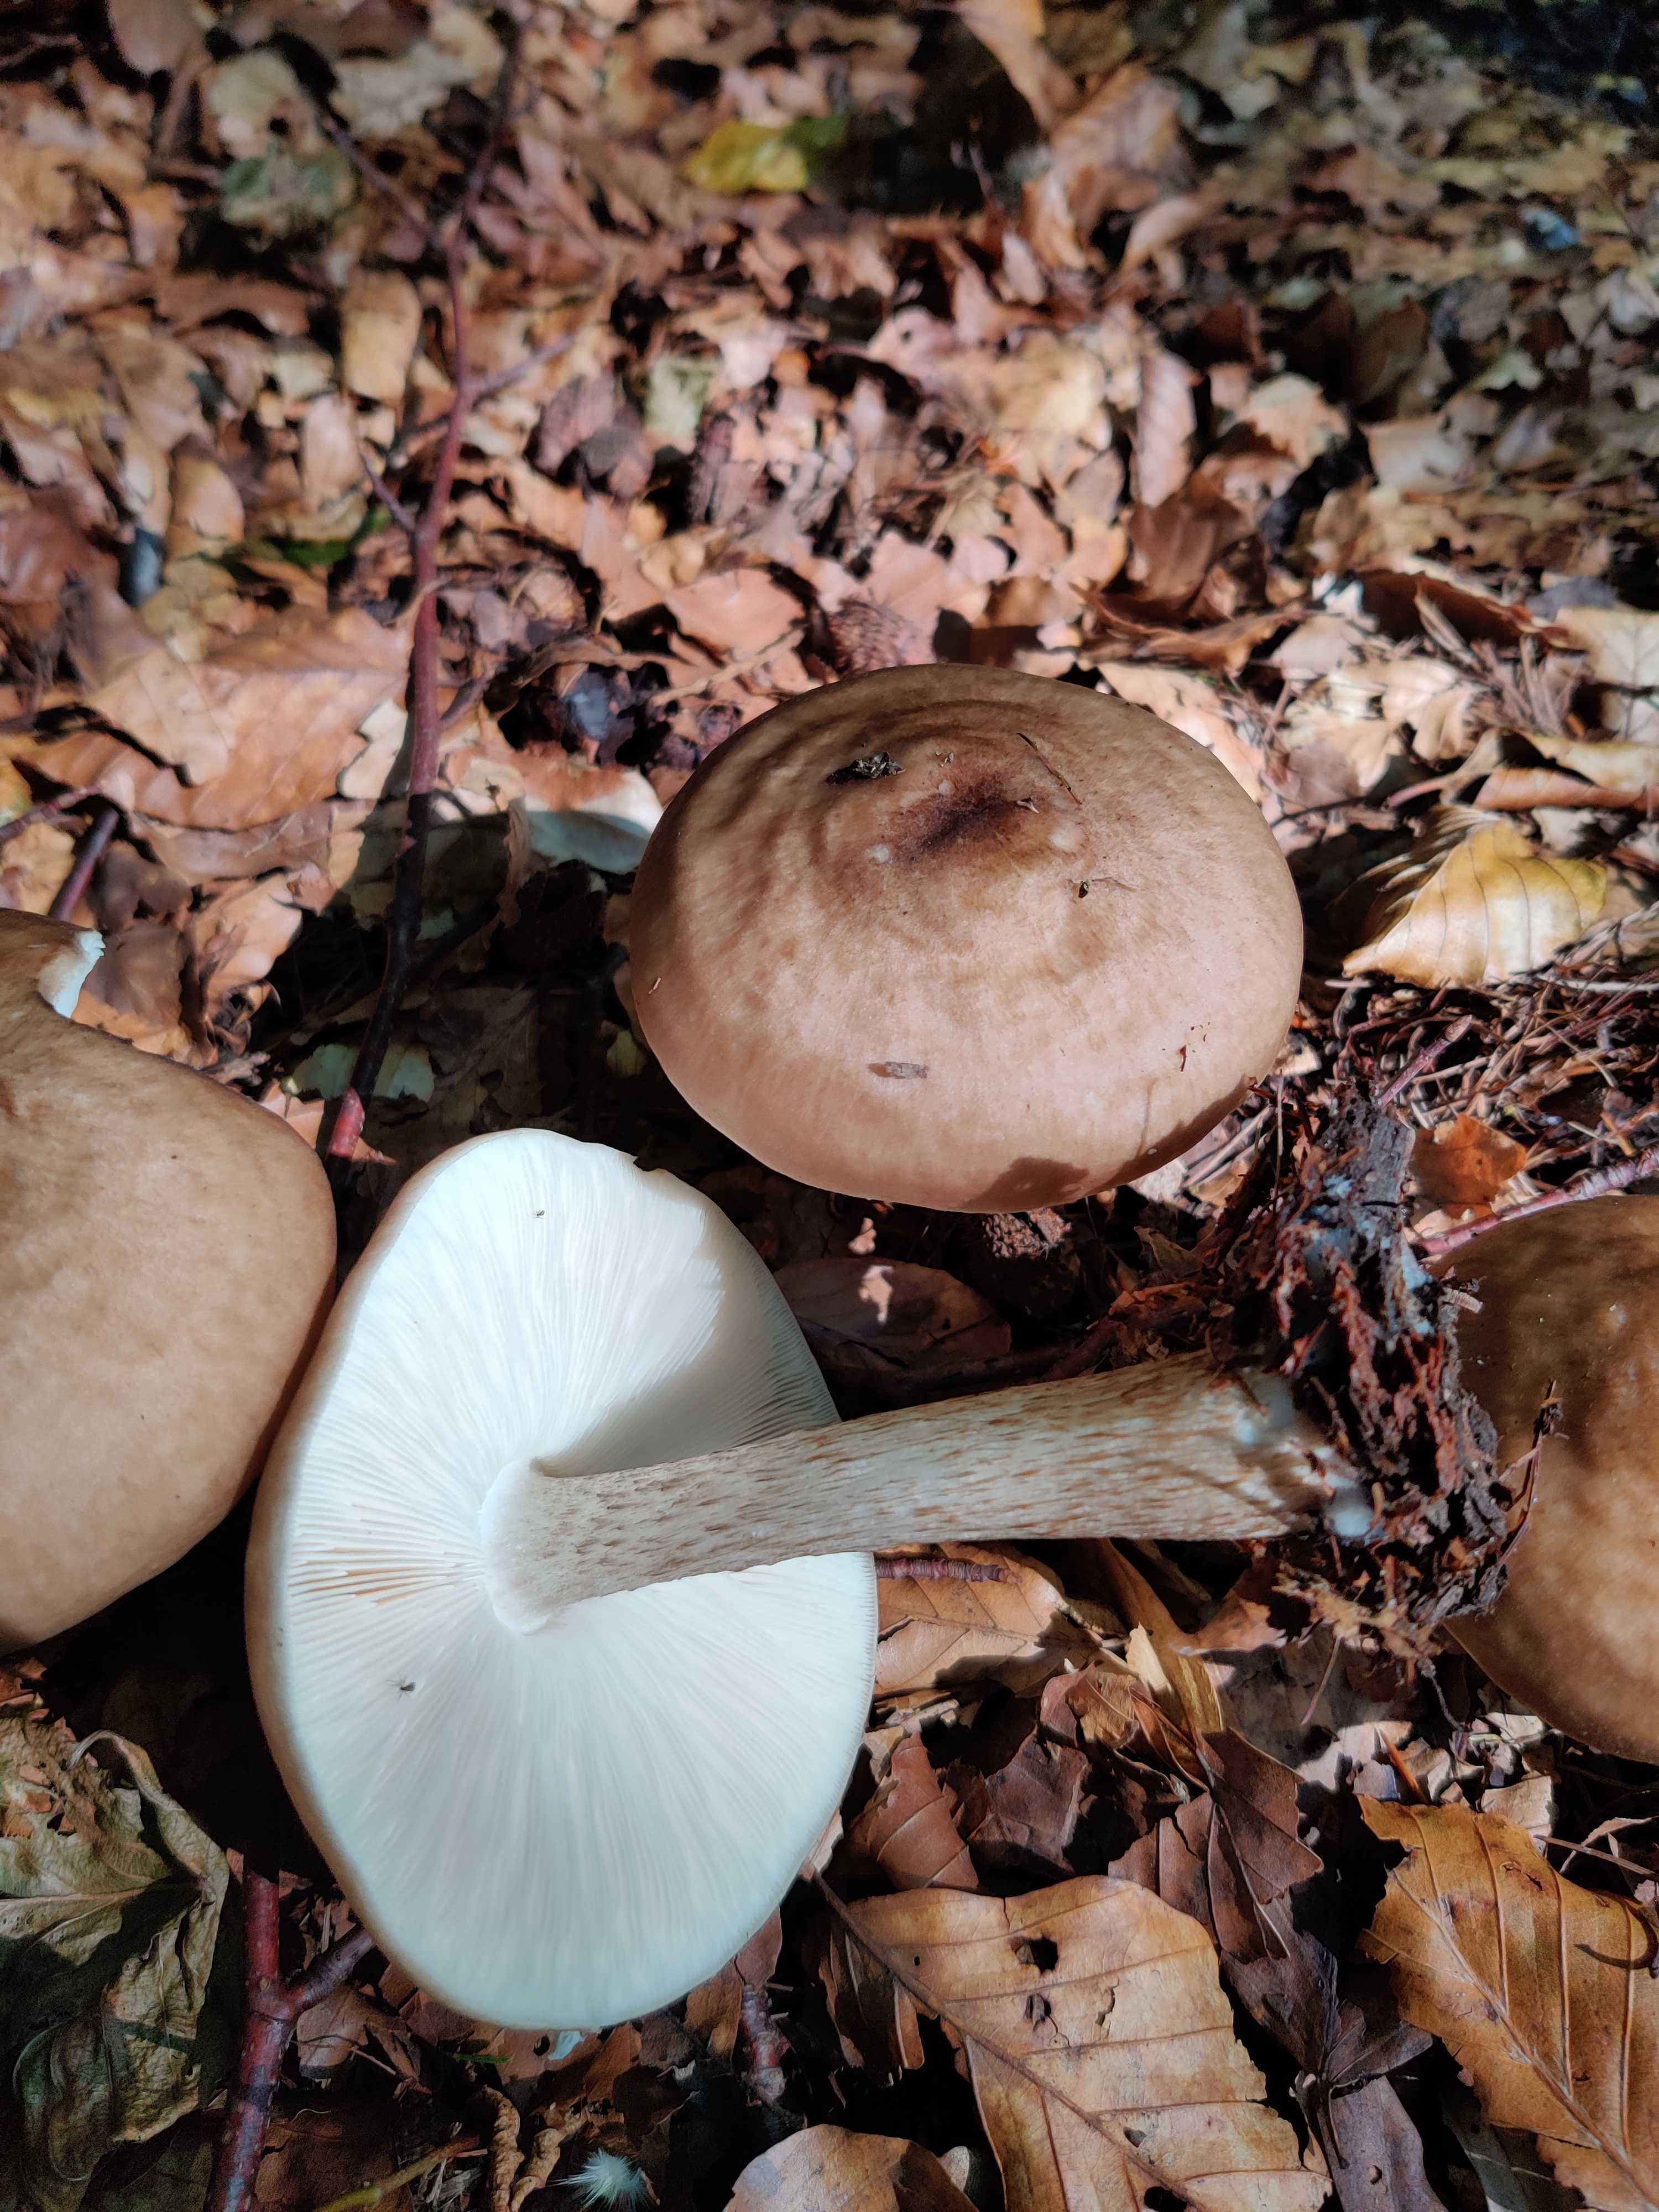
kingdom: Fungi
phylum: Basidiomycota
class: Agaricomycetes
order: Agaricales
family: Pluteaceae
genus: Pluteus
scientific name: Pluteus cervinus
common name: sodfarvet skærmhat
